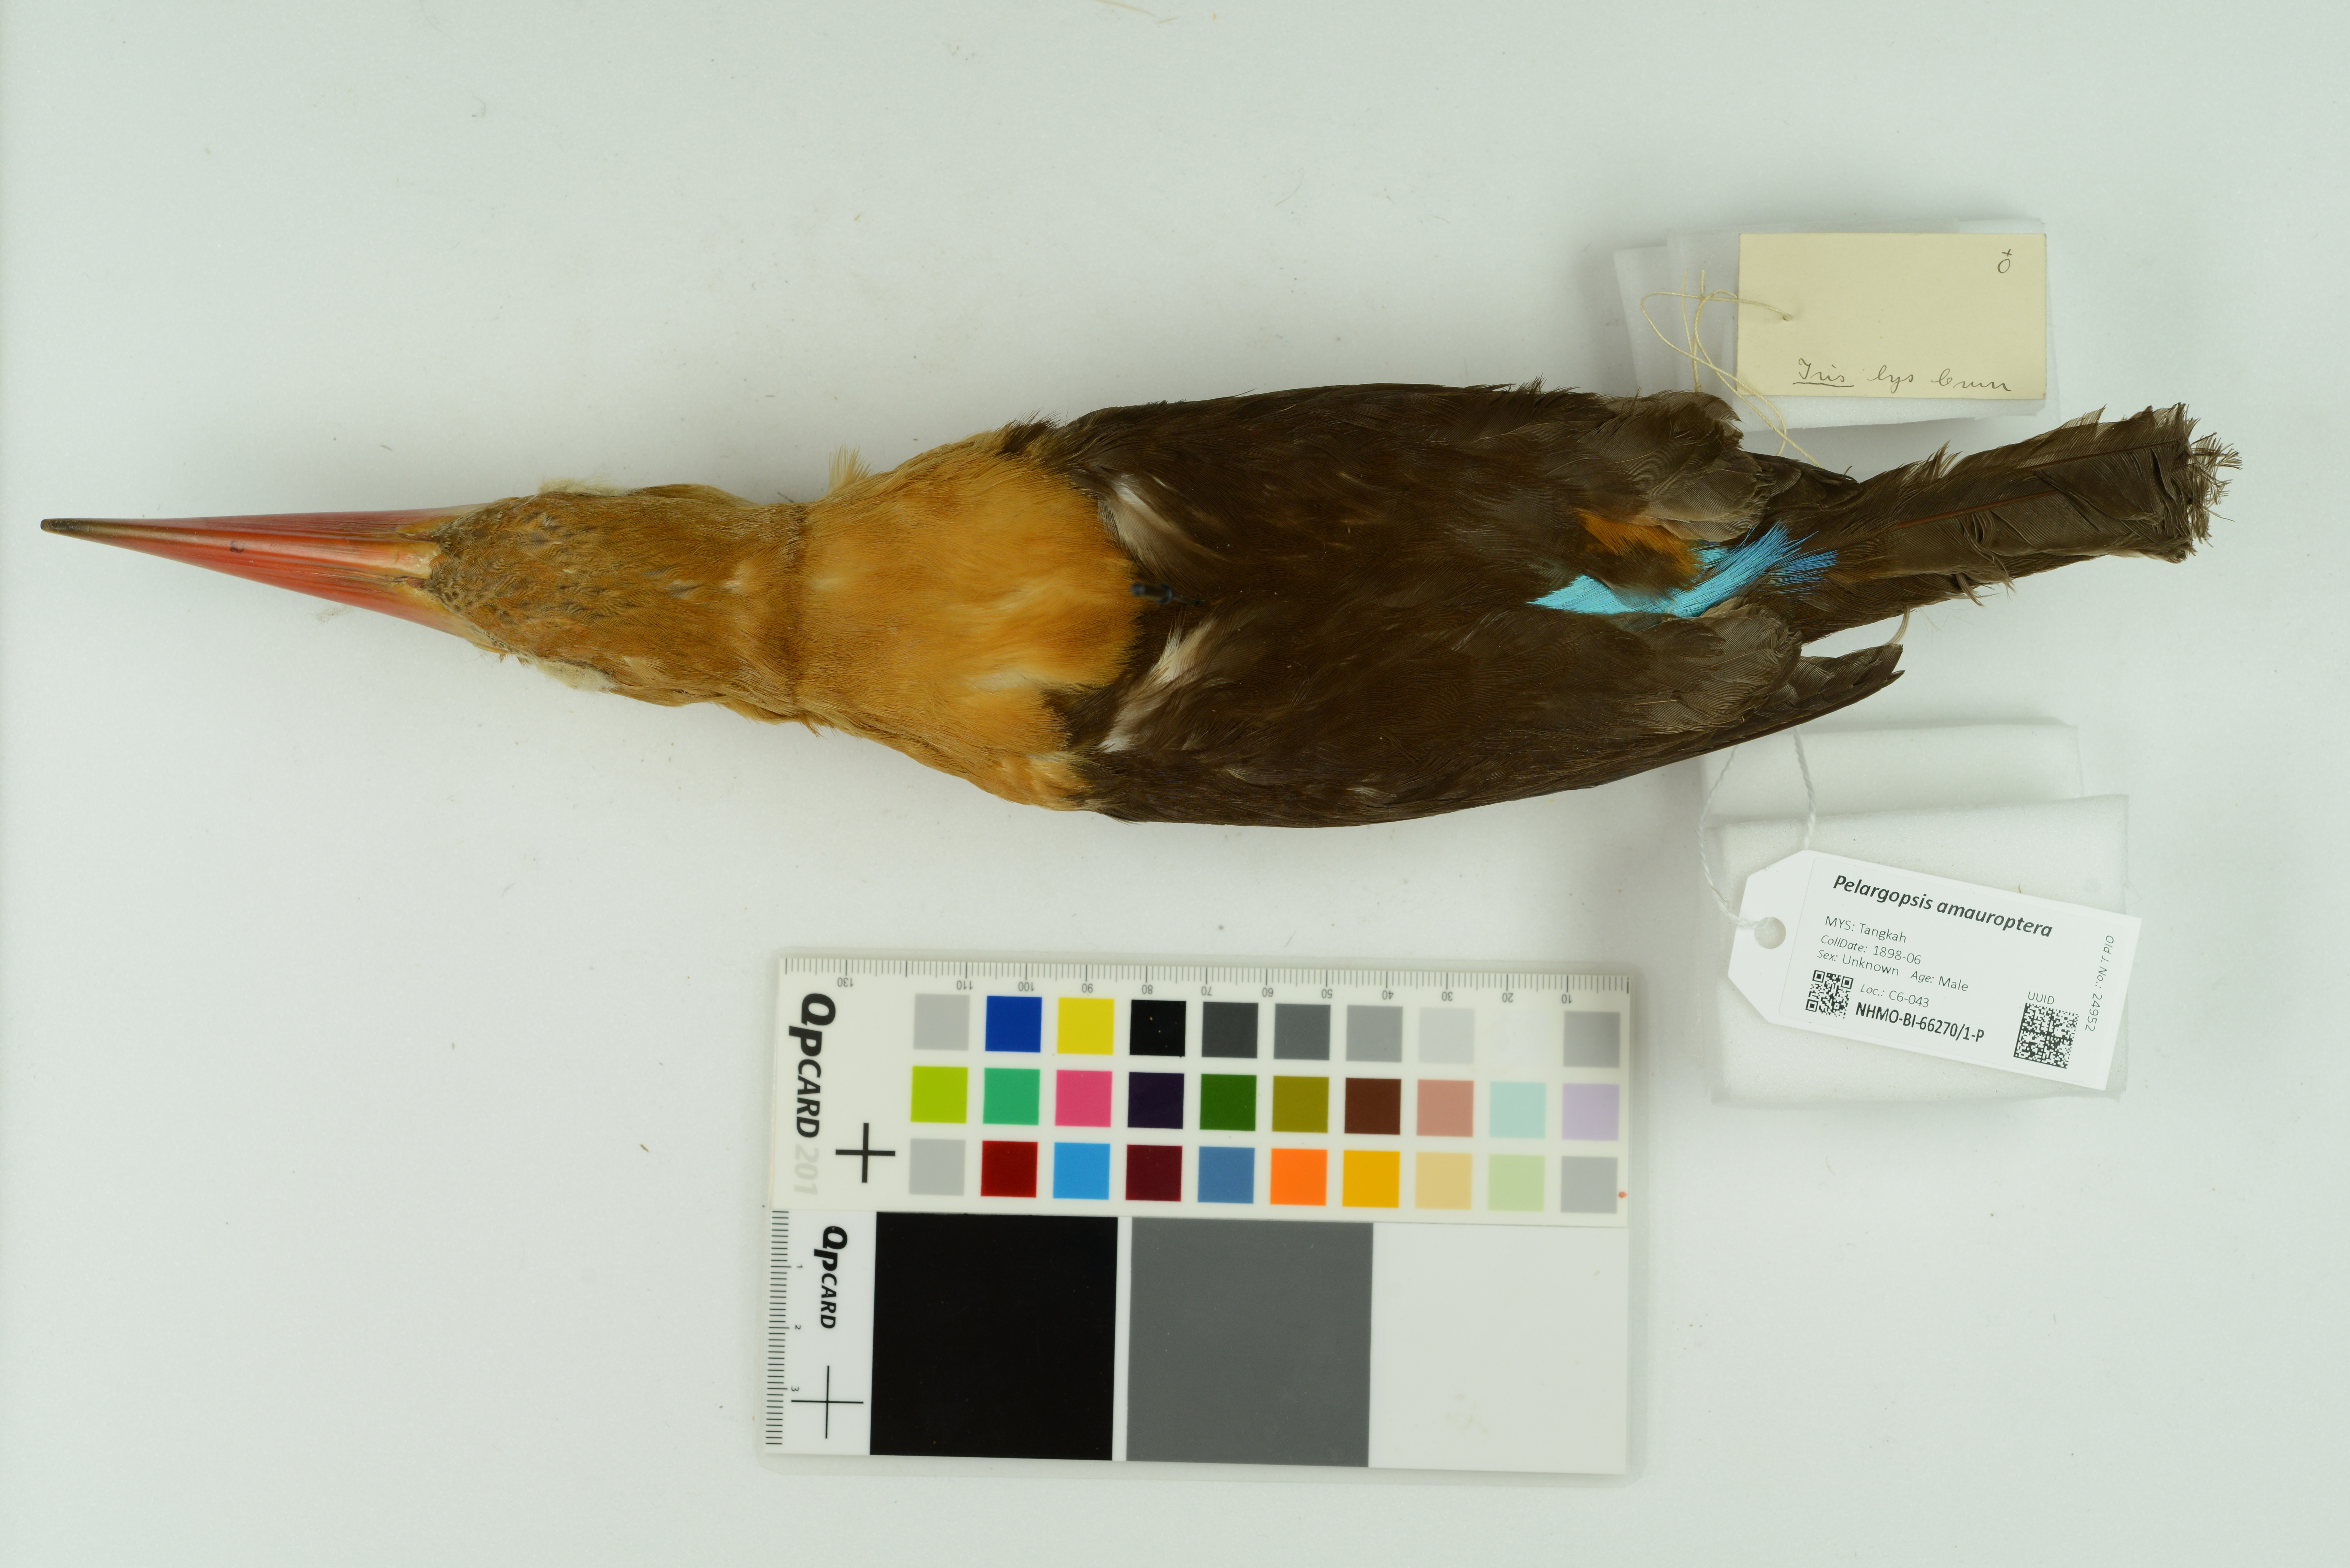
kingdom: Animalia
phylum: Chordata
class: Aves
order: Coraciiformes
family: Alcedinidae
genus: Pelargopsis
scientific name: Pelargopsis amauroptera
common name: Brown-winged kingfisher
